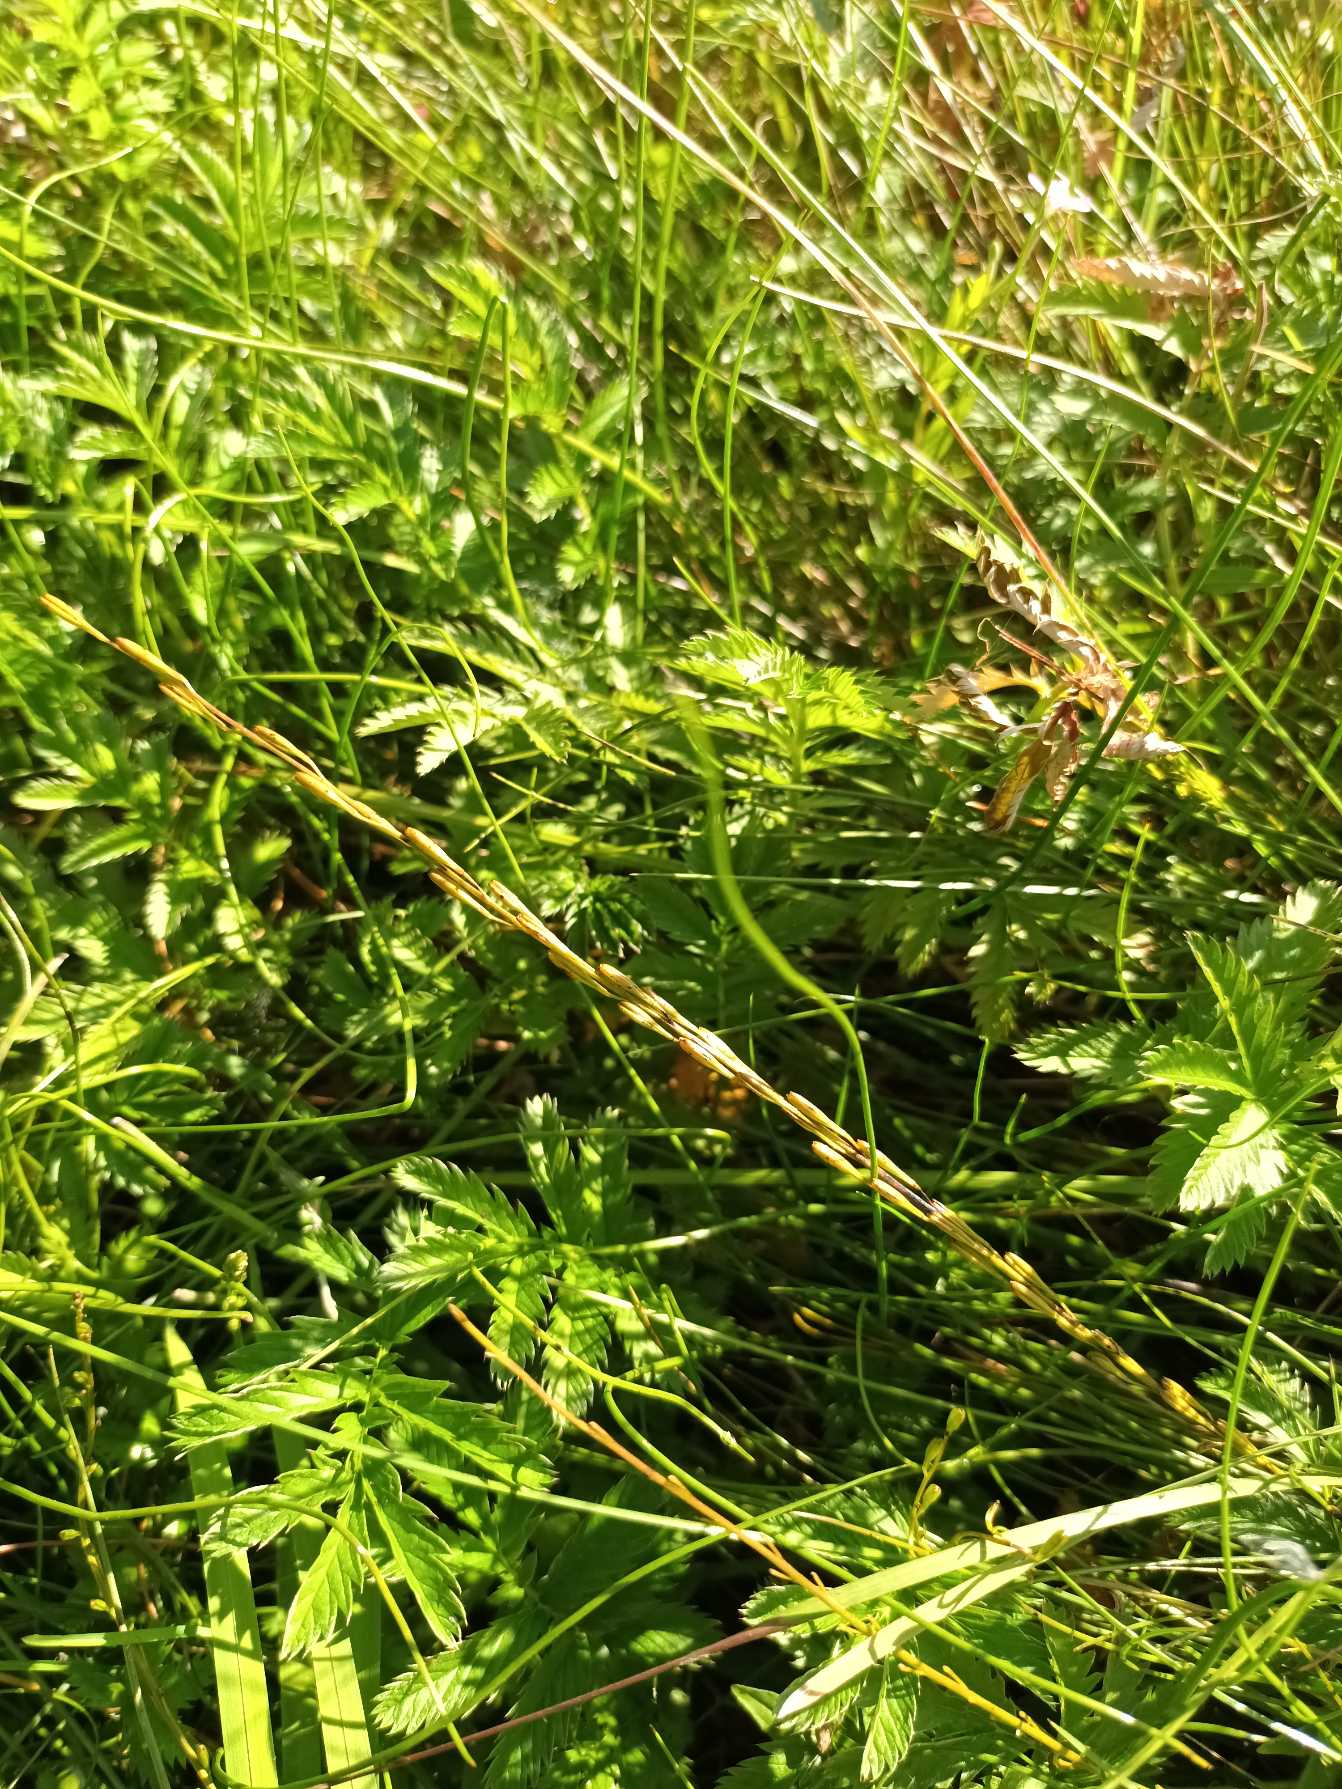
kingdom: Plantae
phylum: Tracheophyta
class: Liliopsida
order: Alismatales
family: Juncaginaceae
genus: Triglochin
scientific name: Triglochin palustris
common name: Kær-trehage
